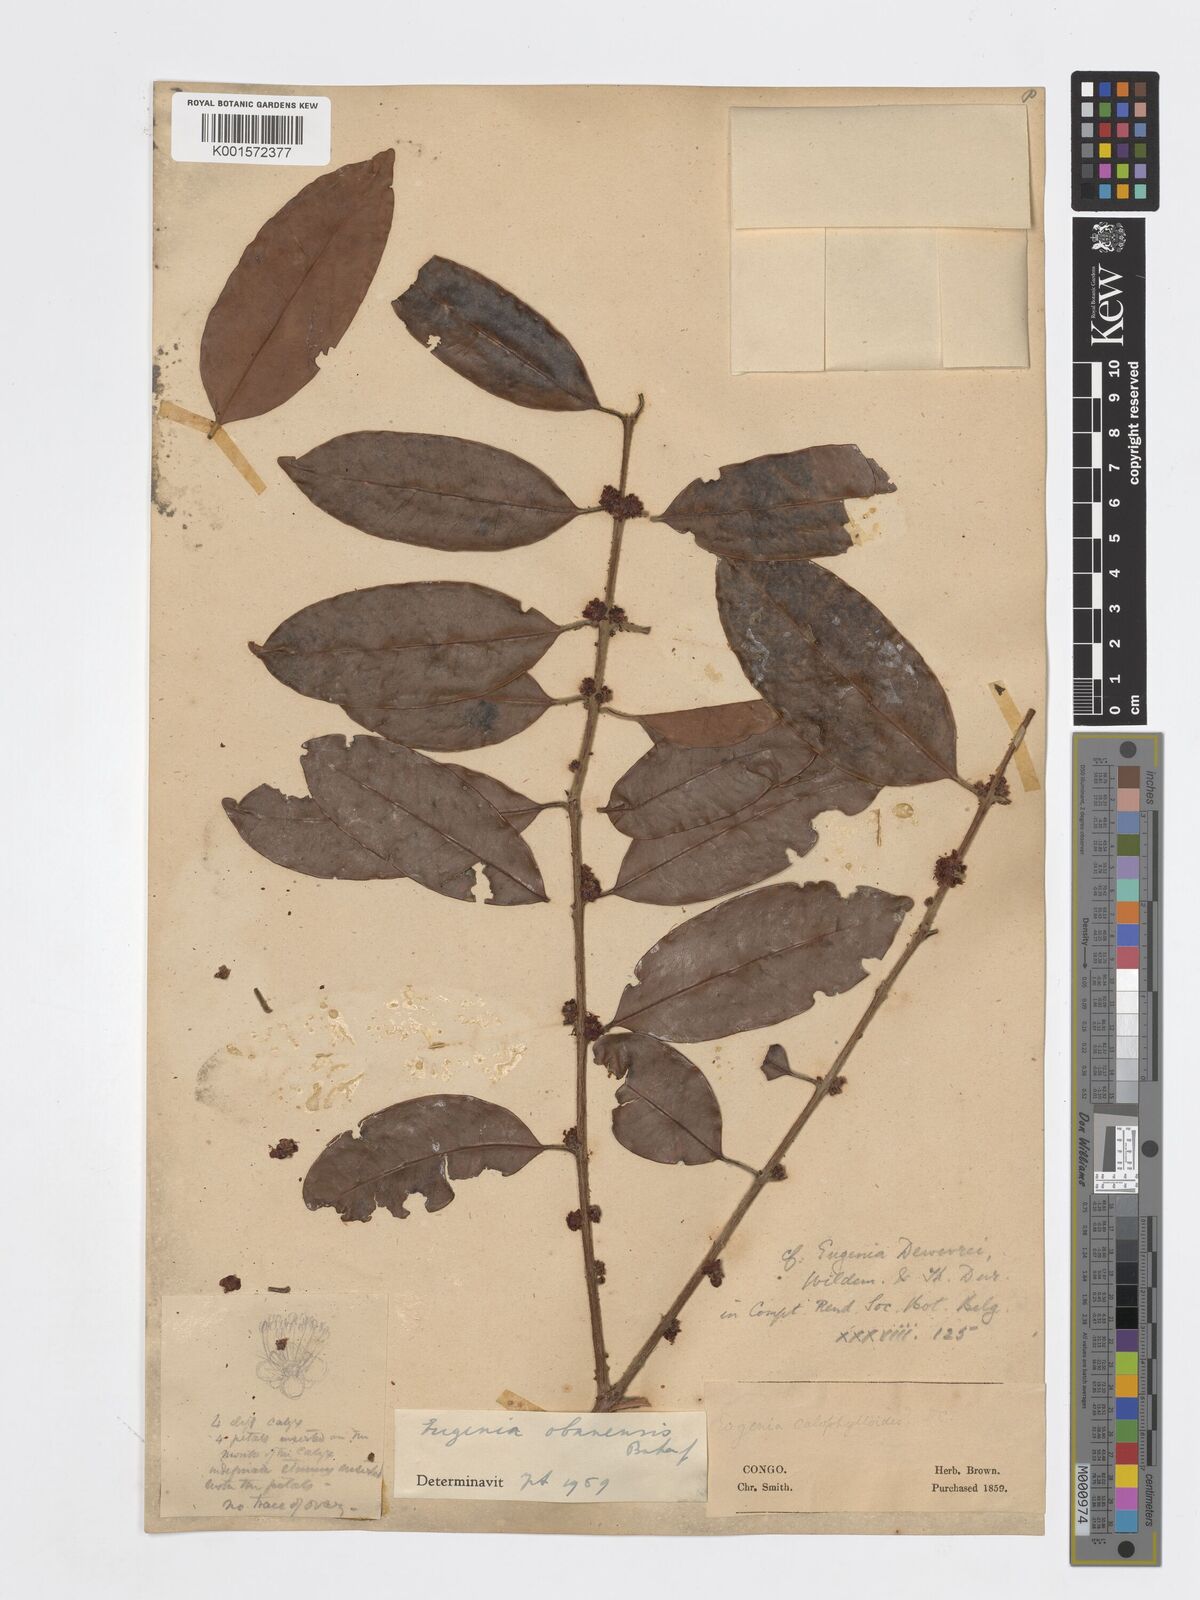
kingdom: Plantae
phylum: Tracheophyta
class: Magnoliopsida
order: Myrtales
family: Myrtaceae
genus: Eugenia
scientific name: Eugenia obanensis
